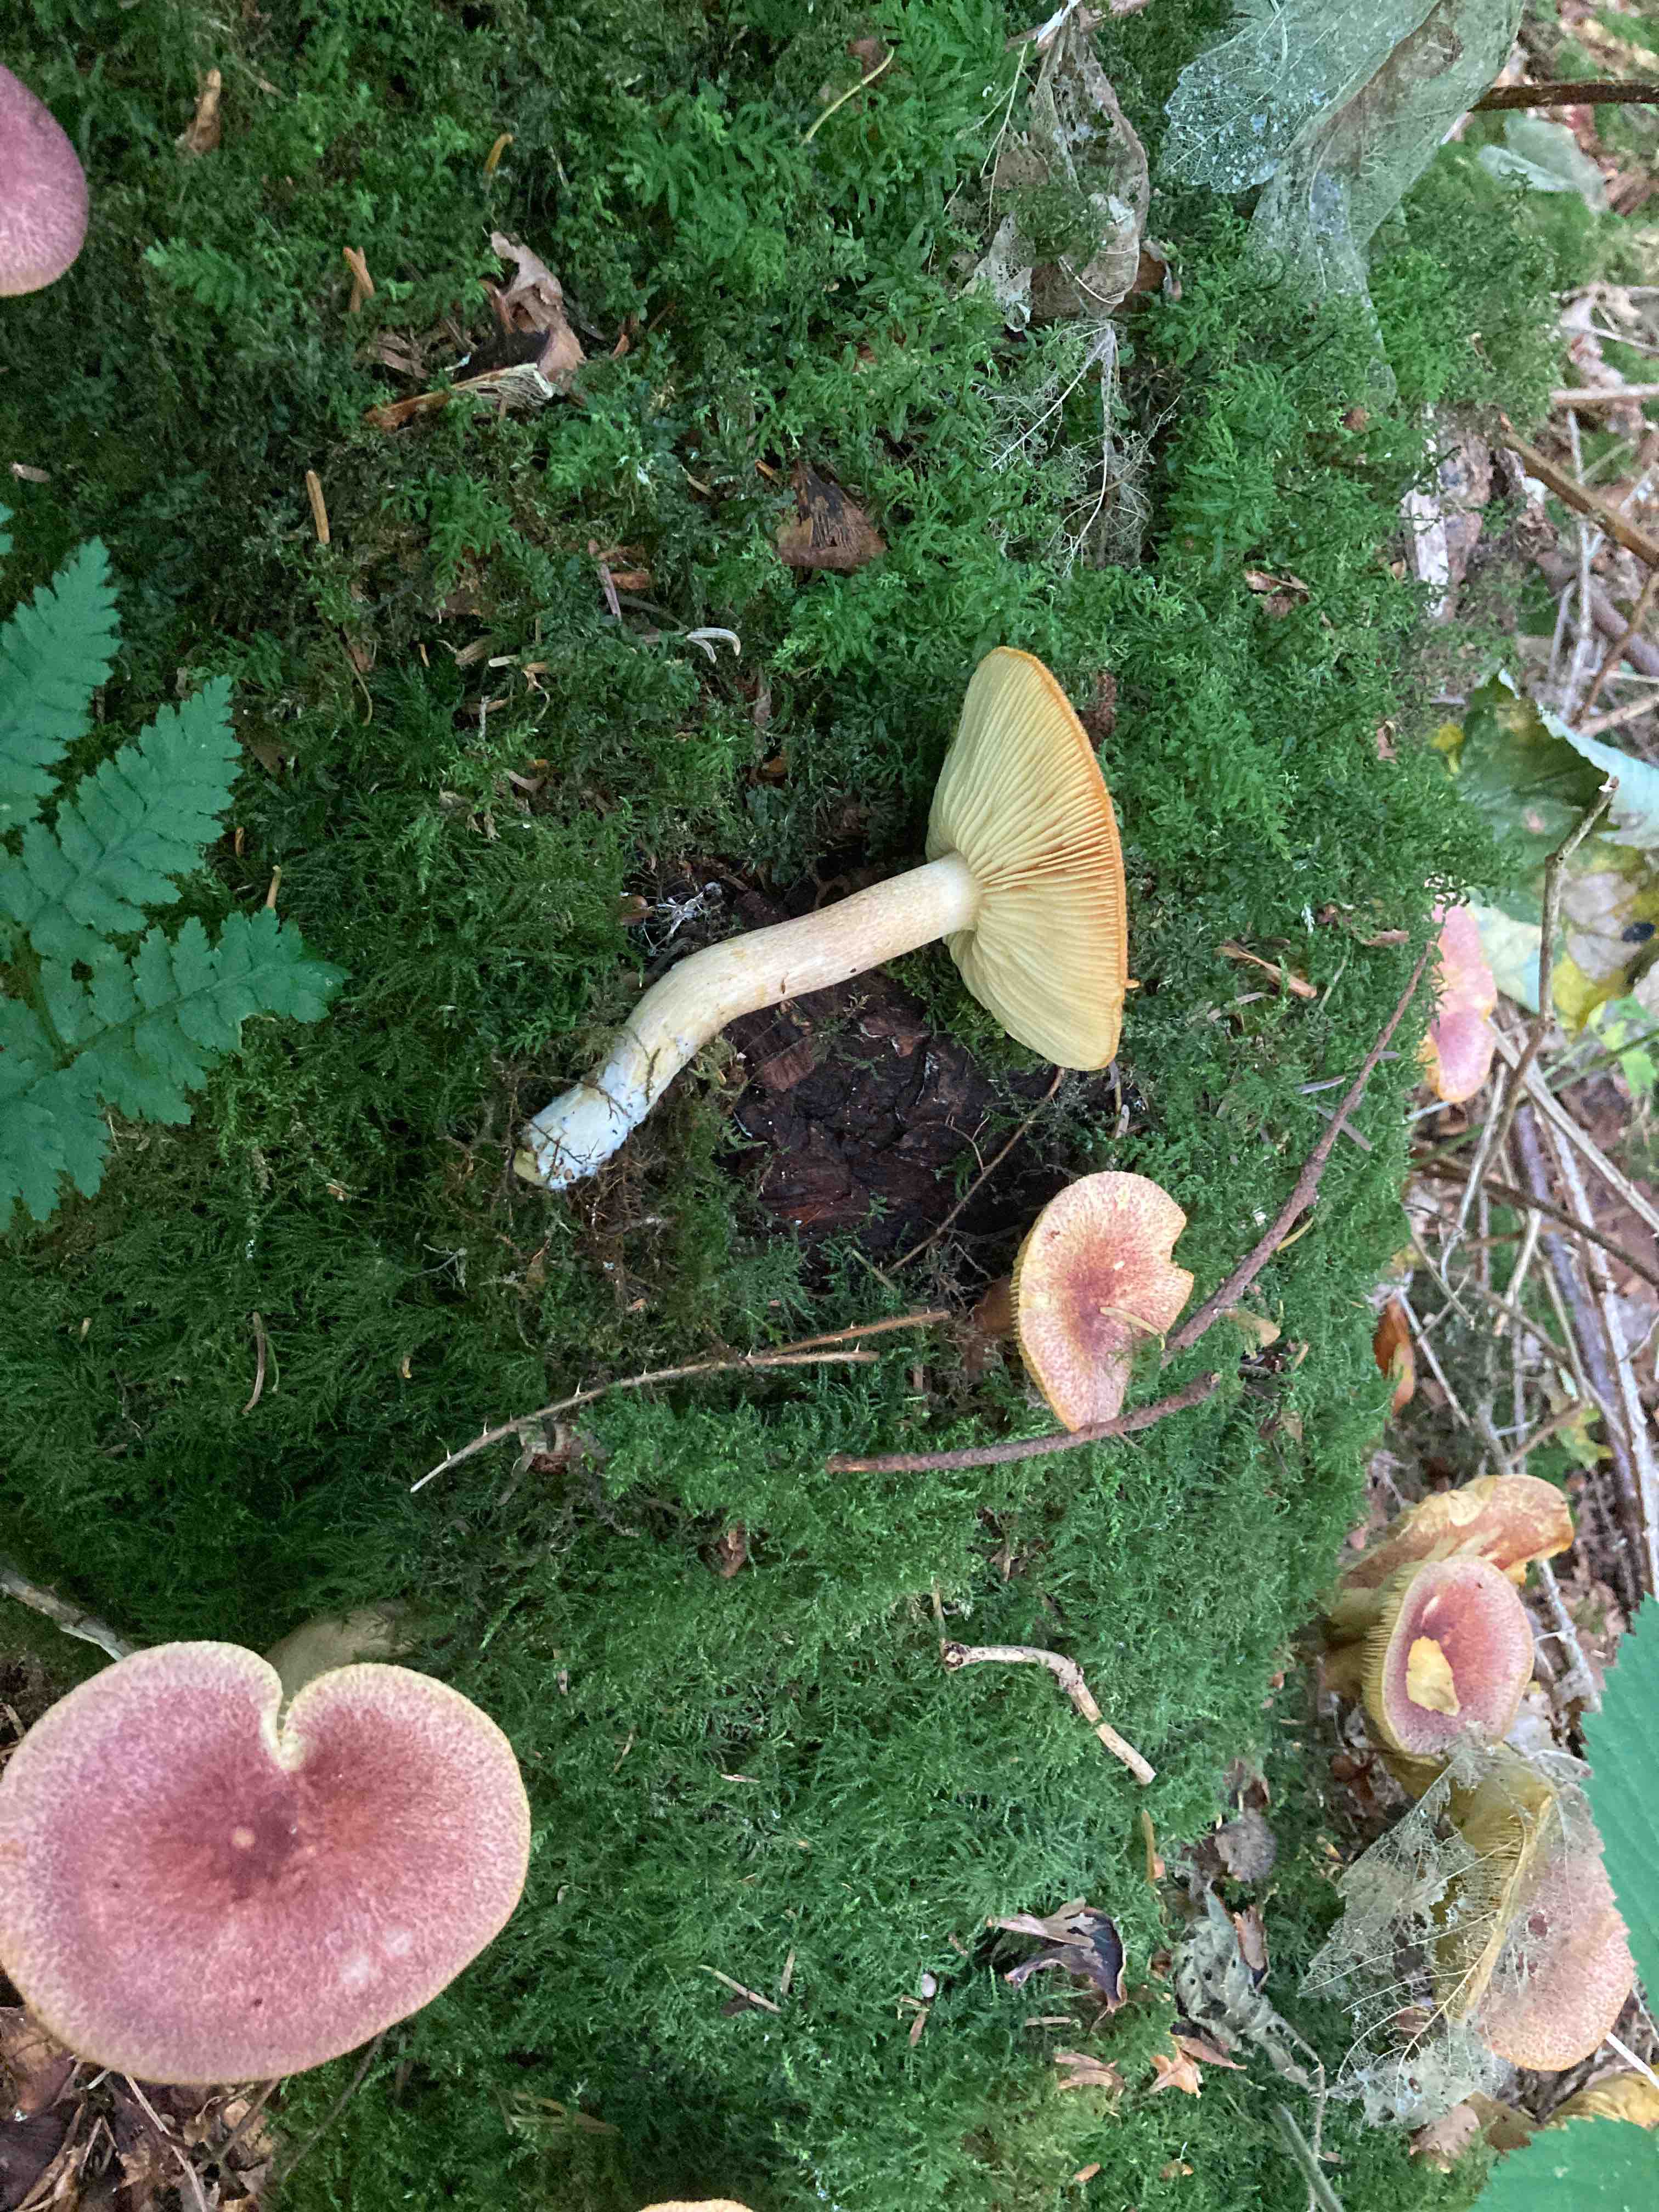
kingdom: Fungi
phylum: Basidiomycota
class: Agaricomycetes
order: Agaricales
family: Tricholomataceae
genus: Tricholomopsis
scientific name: Tricholomopsis rutilans
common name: purpur-væbnerhat
